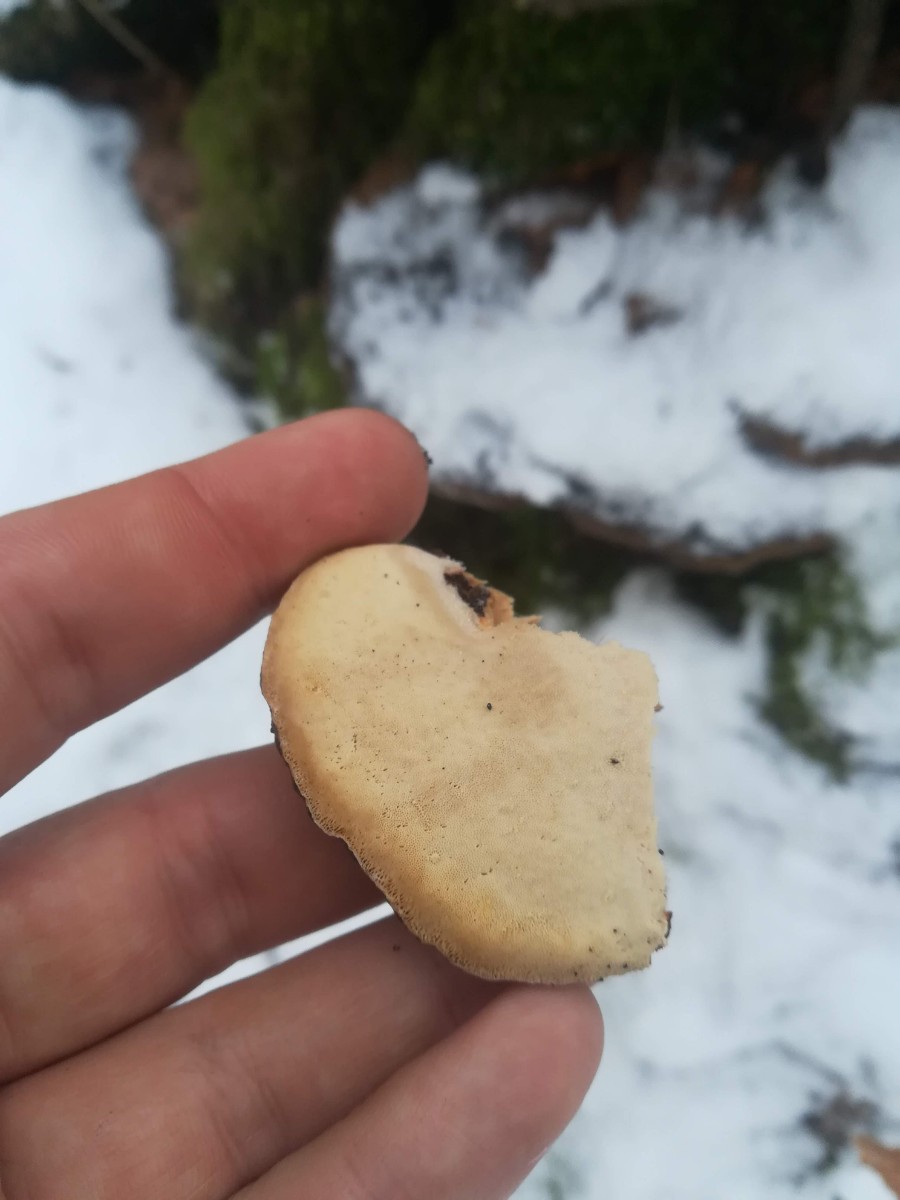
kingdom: Fungi
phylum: Basidiomycota
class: Agaricomycetes
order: Polyporales
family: Ischnodermataceae
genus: Ischnoderma
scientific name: Ischnoderma resinosum
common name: løv-tjæreporesvamp
